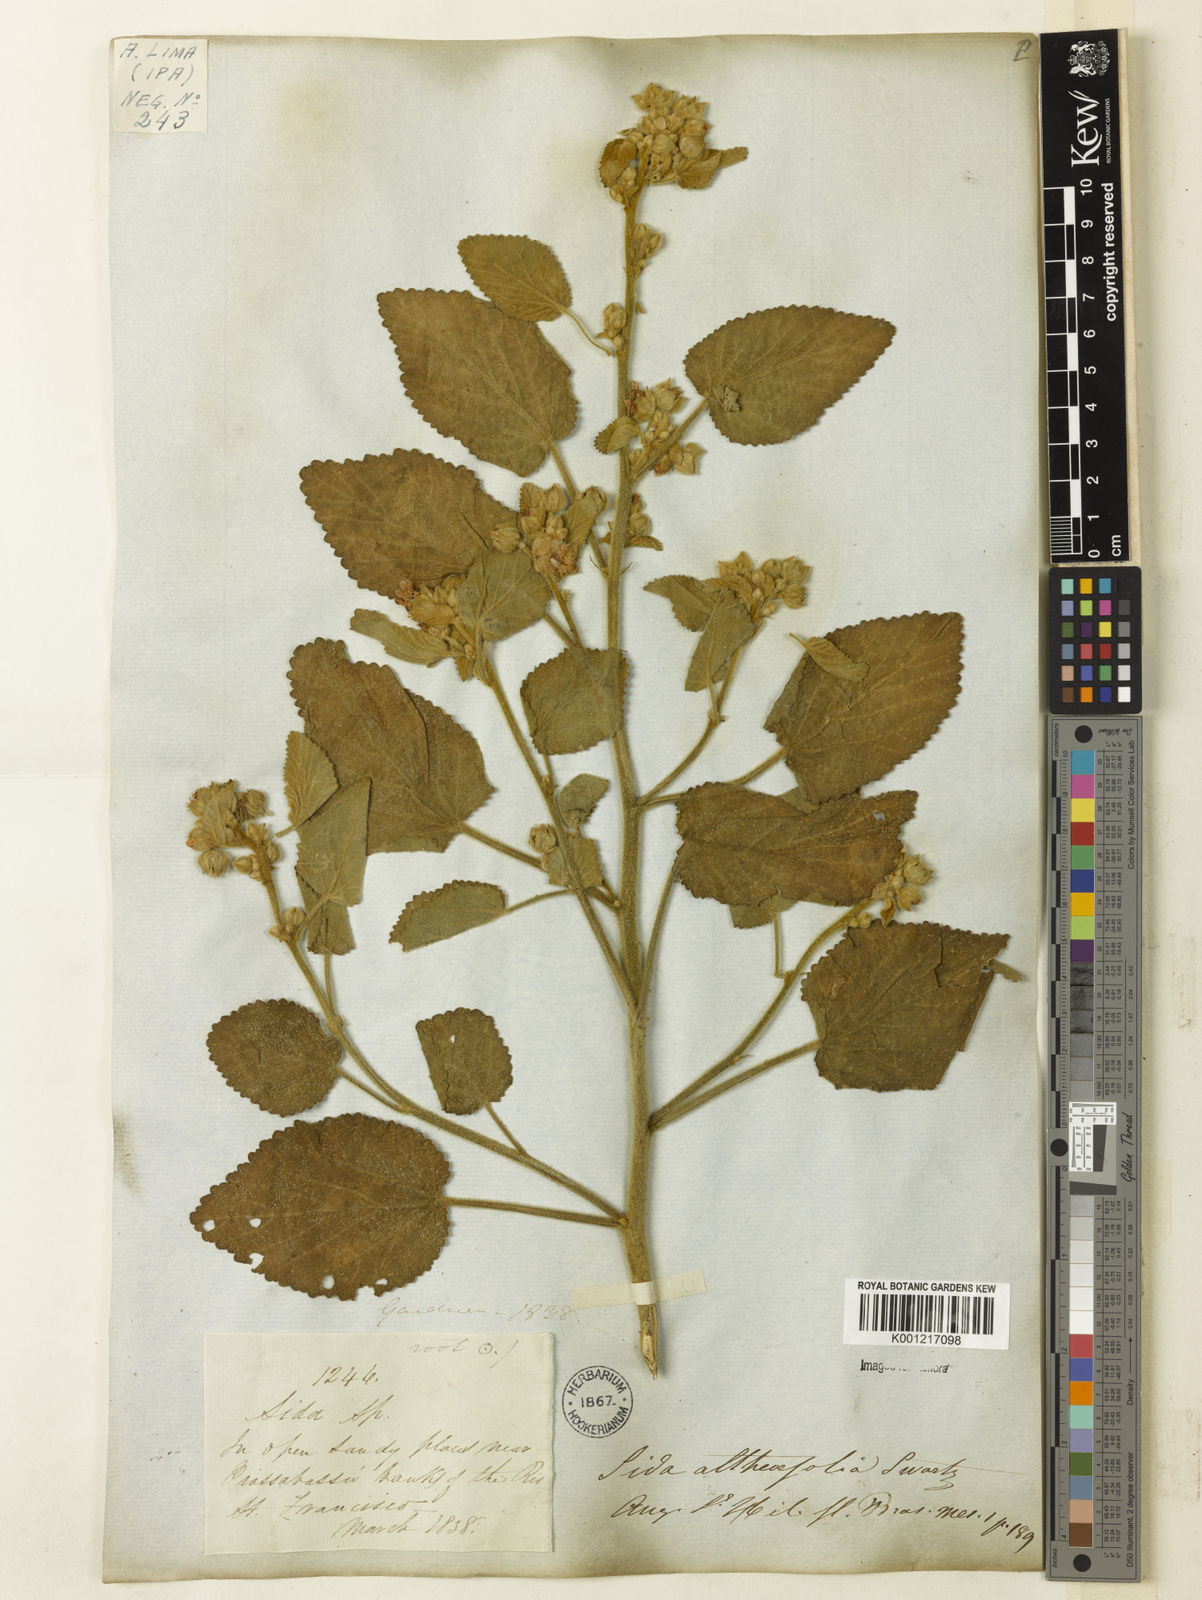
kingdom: Plantae
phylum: Tracheophyta
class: Magnoliopsida
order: Malvales
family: Malvaceae
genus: Sida
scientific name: Sida cordifolia
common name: Ilima
